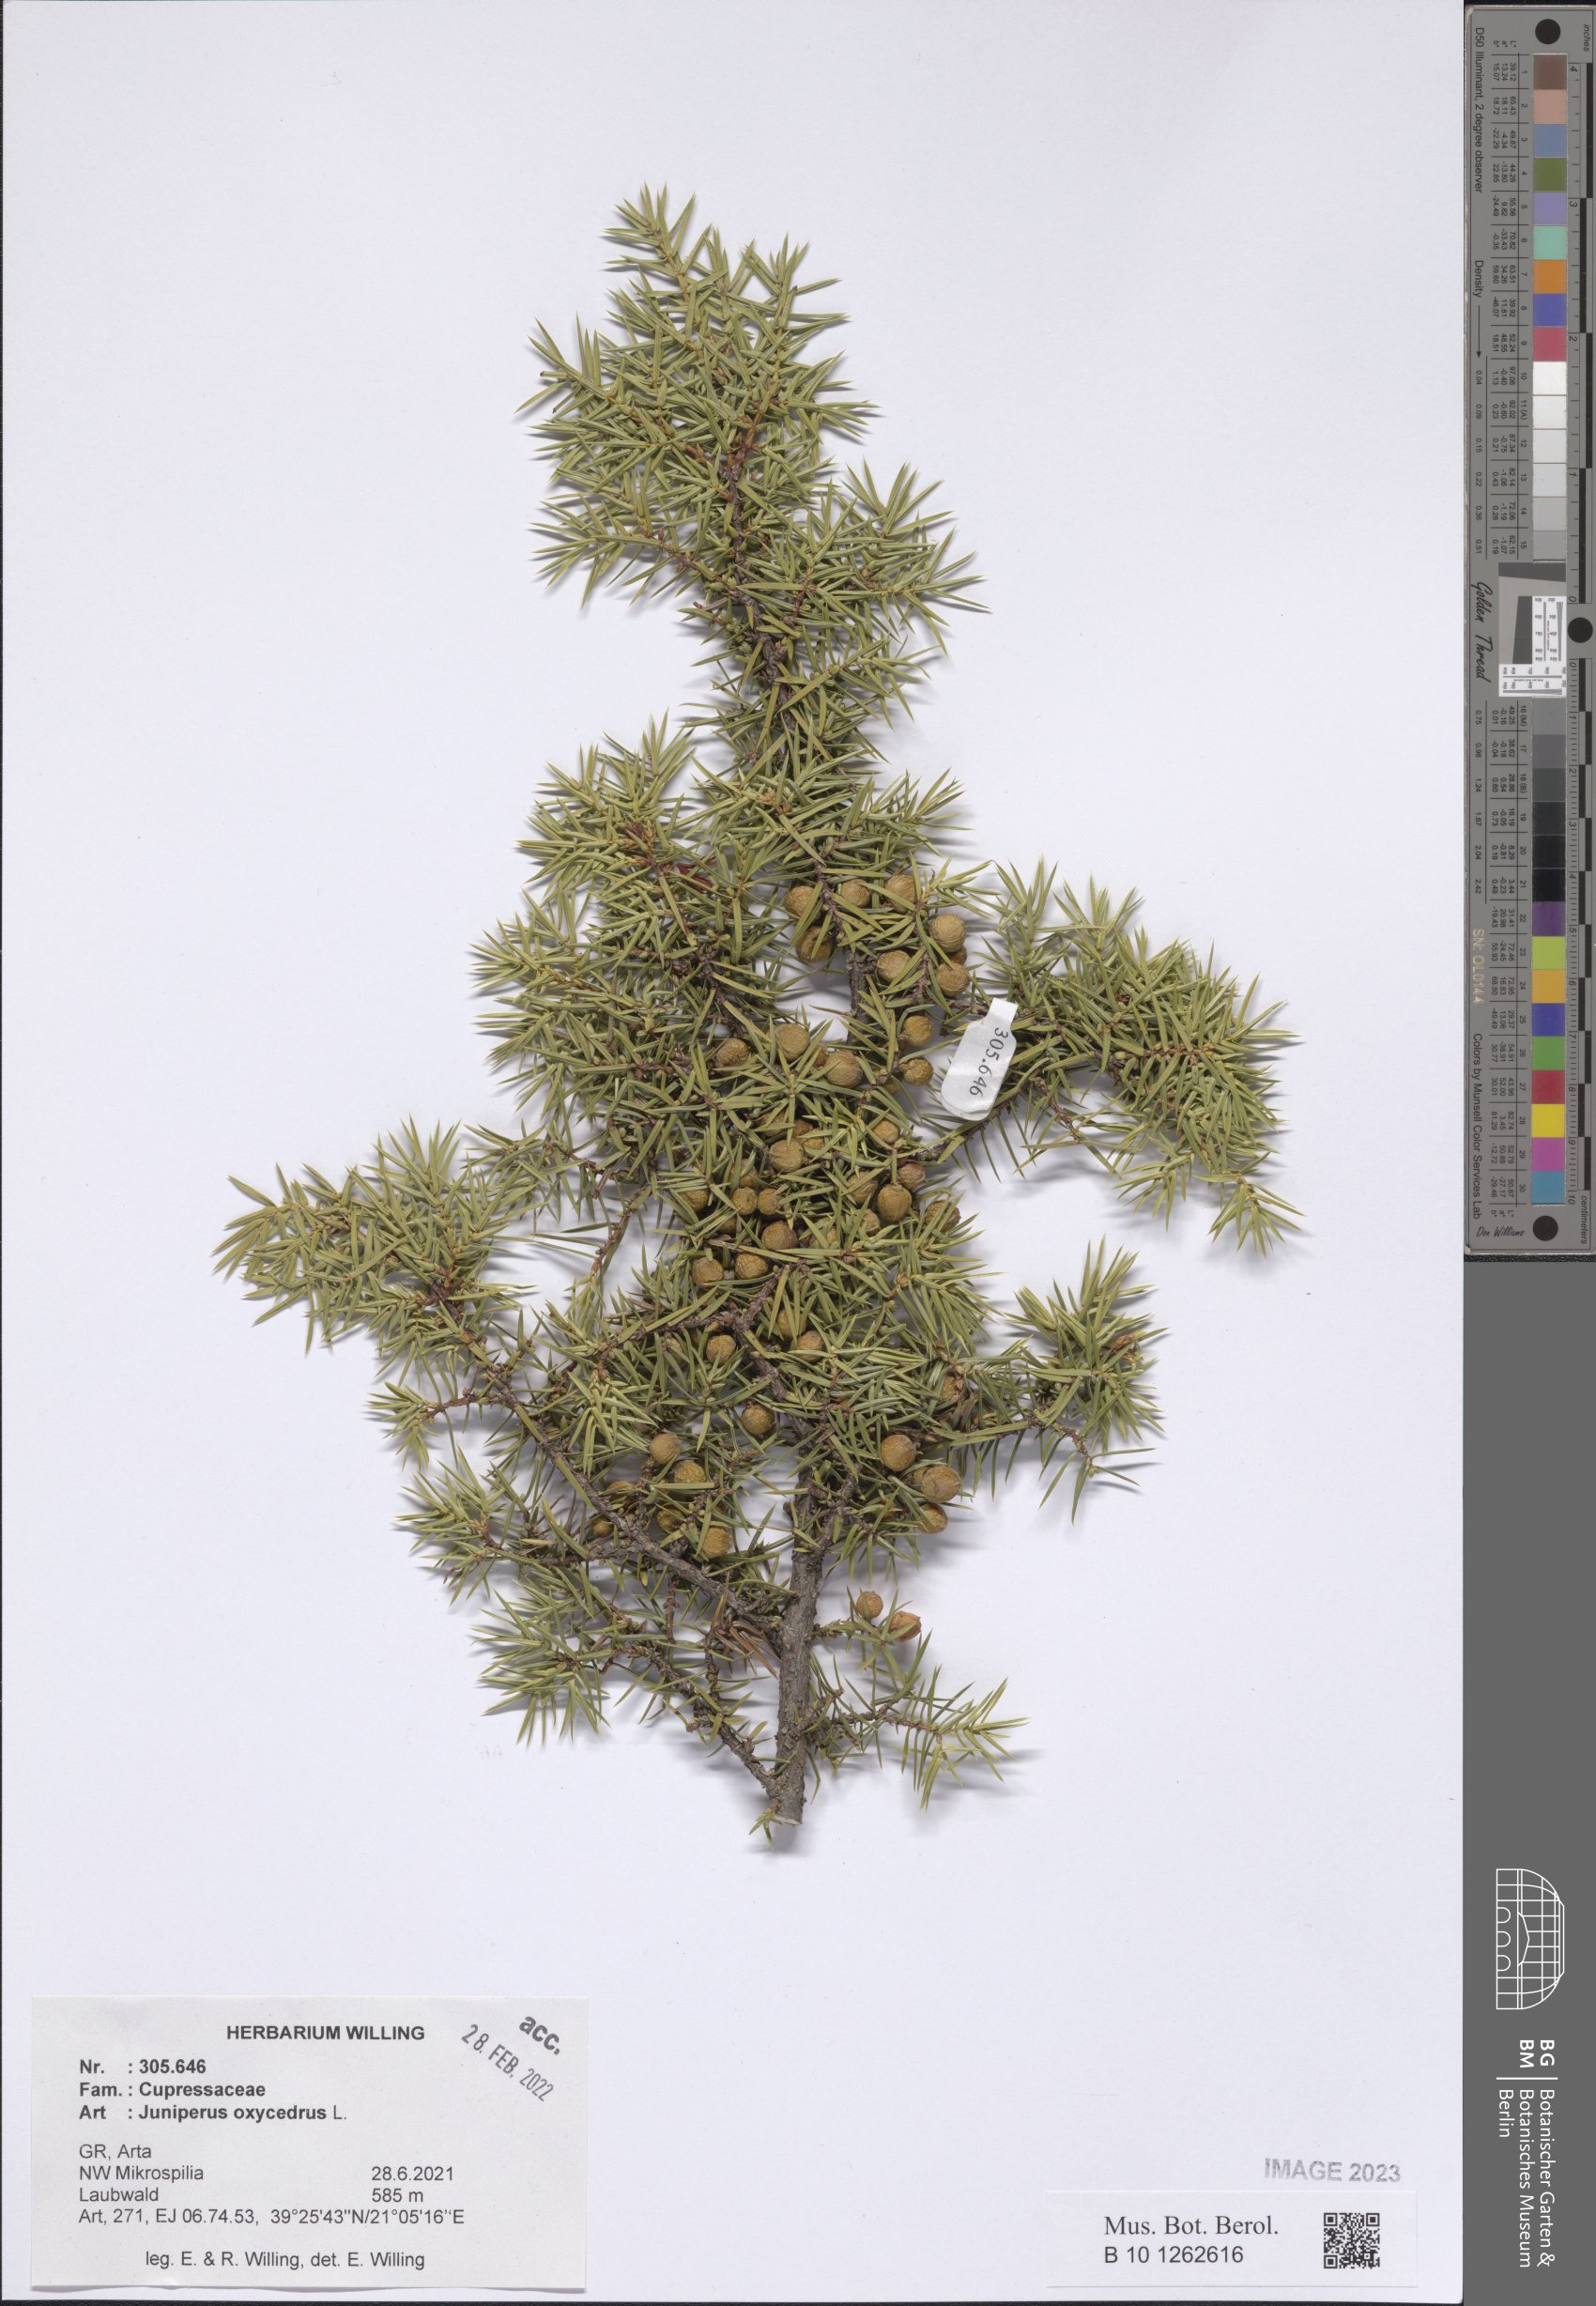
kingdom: Plantae
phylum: Tracheophyta
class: Pinopsida
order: Pinales
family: Cupressaceae
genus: Juniperus
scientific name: Juniperus oxycedrus
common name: Prickly juniper
